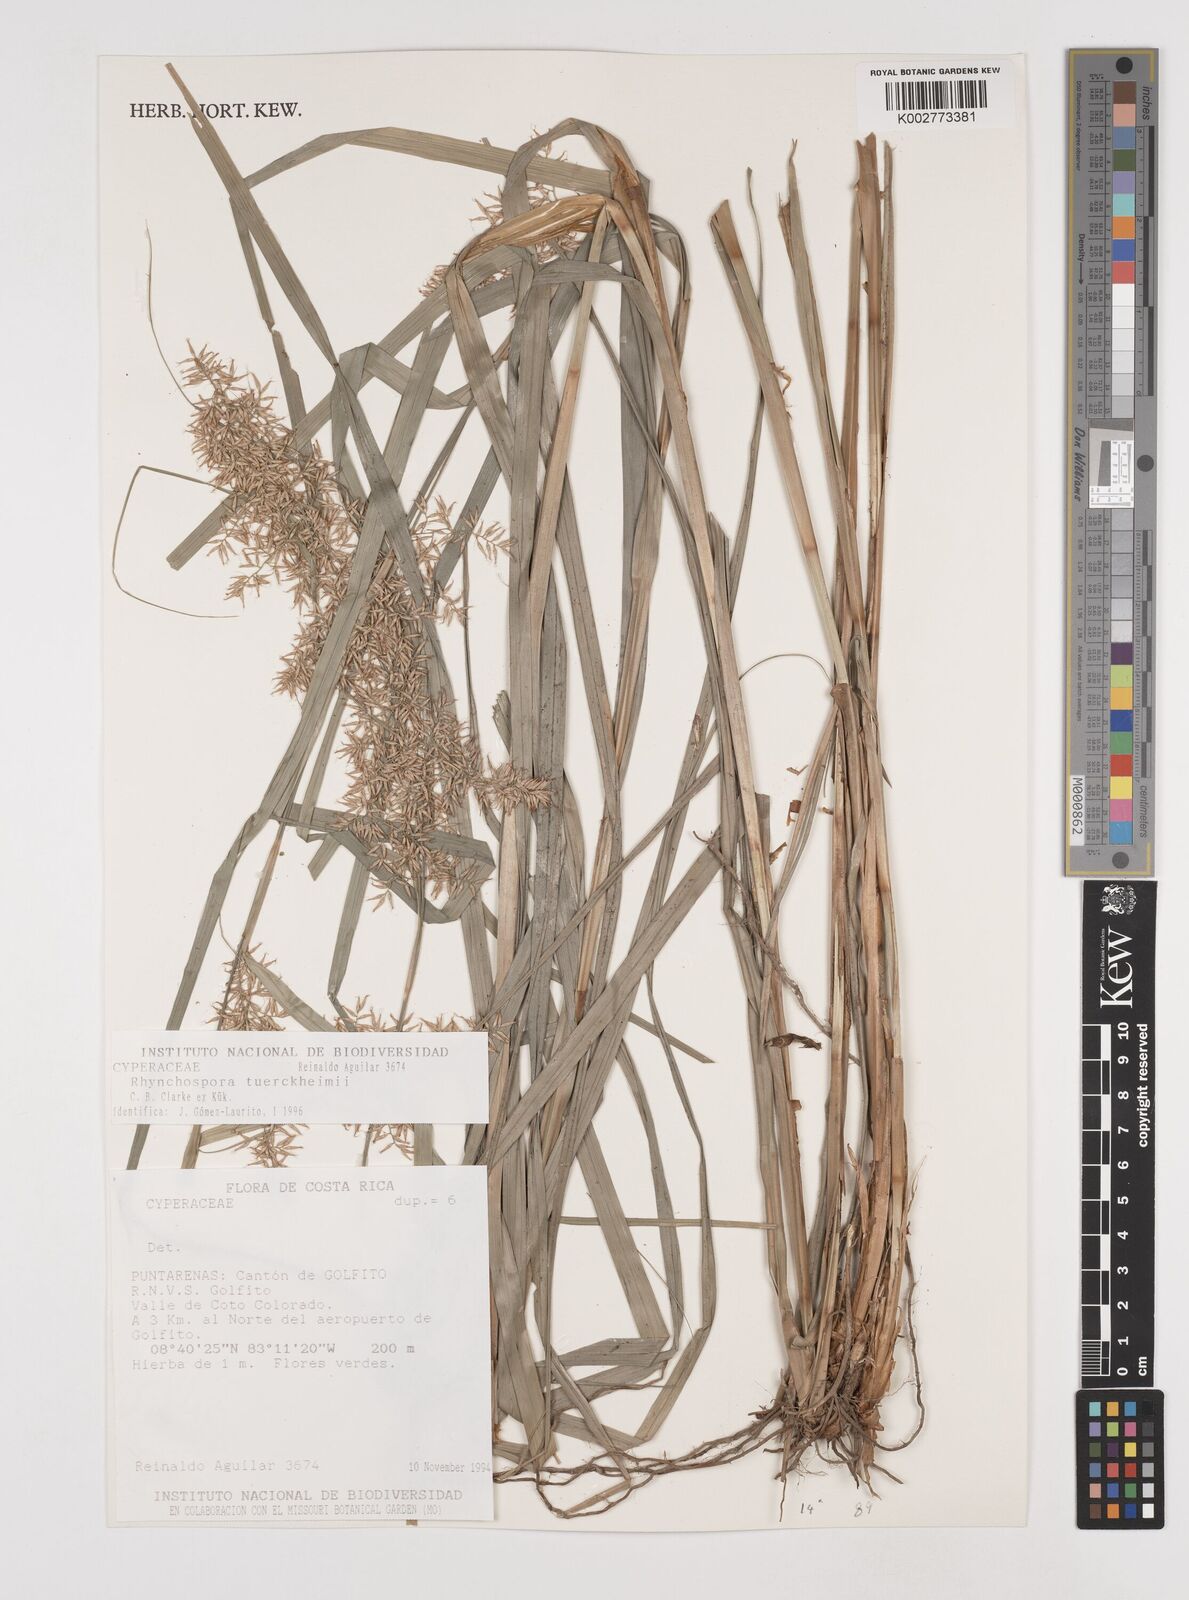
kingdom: Plantae
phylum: Tracheophyta
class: Liliopsida
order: Poales
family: Cyperaceae
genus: Rhynchospora
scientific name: Rhynchospora tuerckheimii
